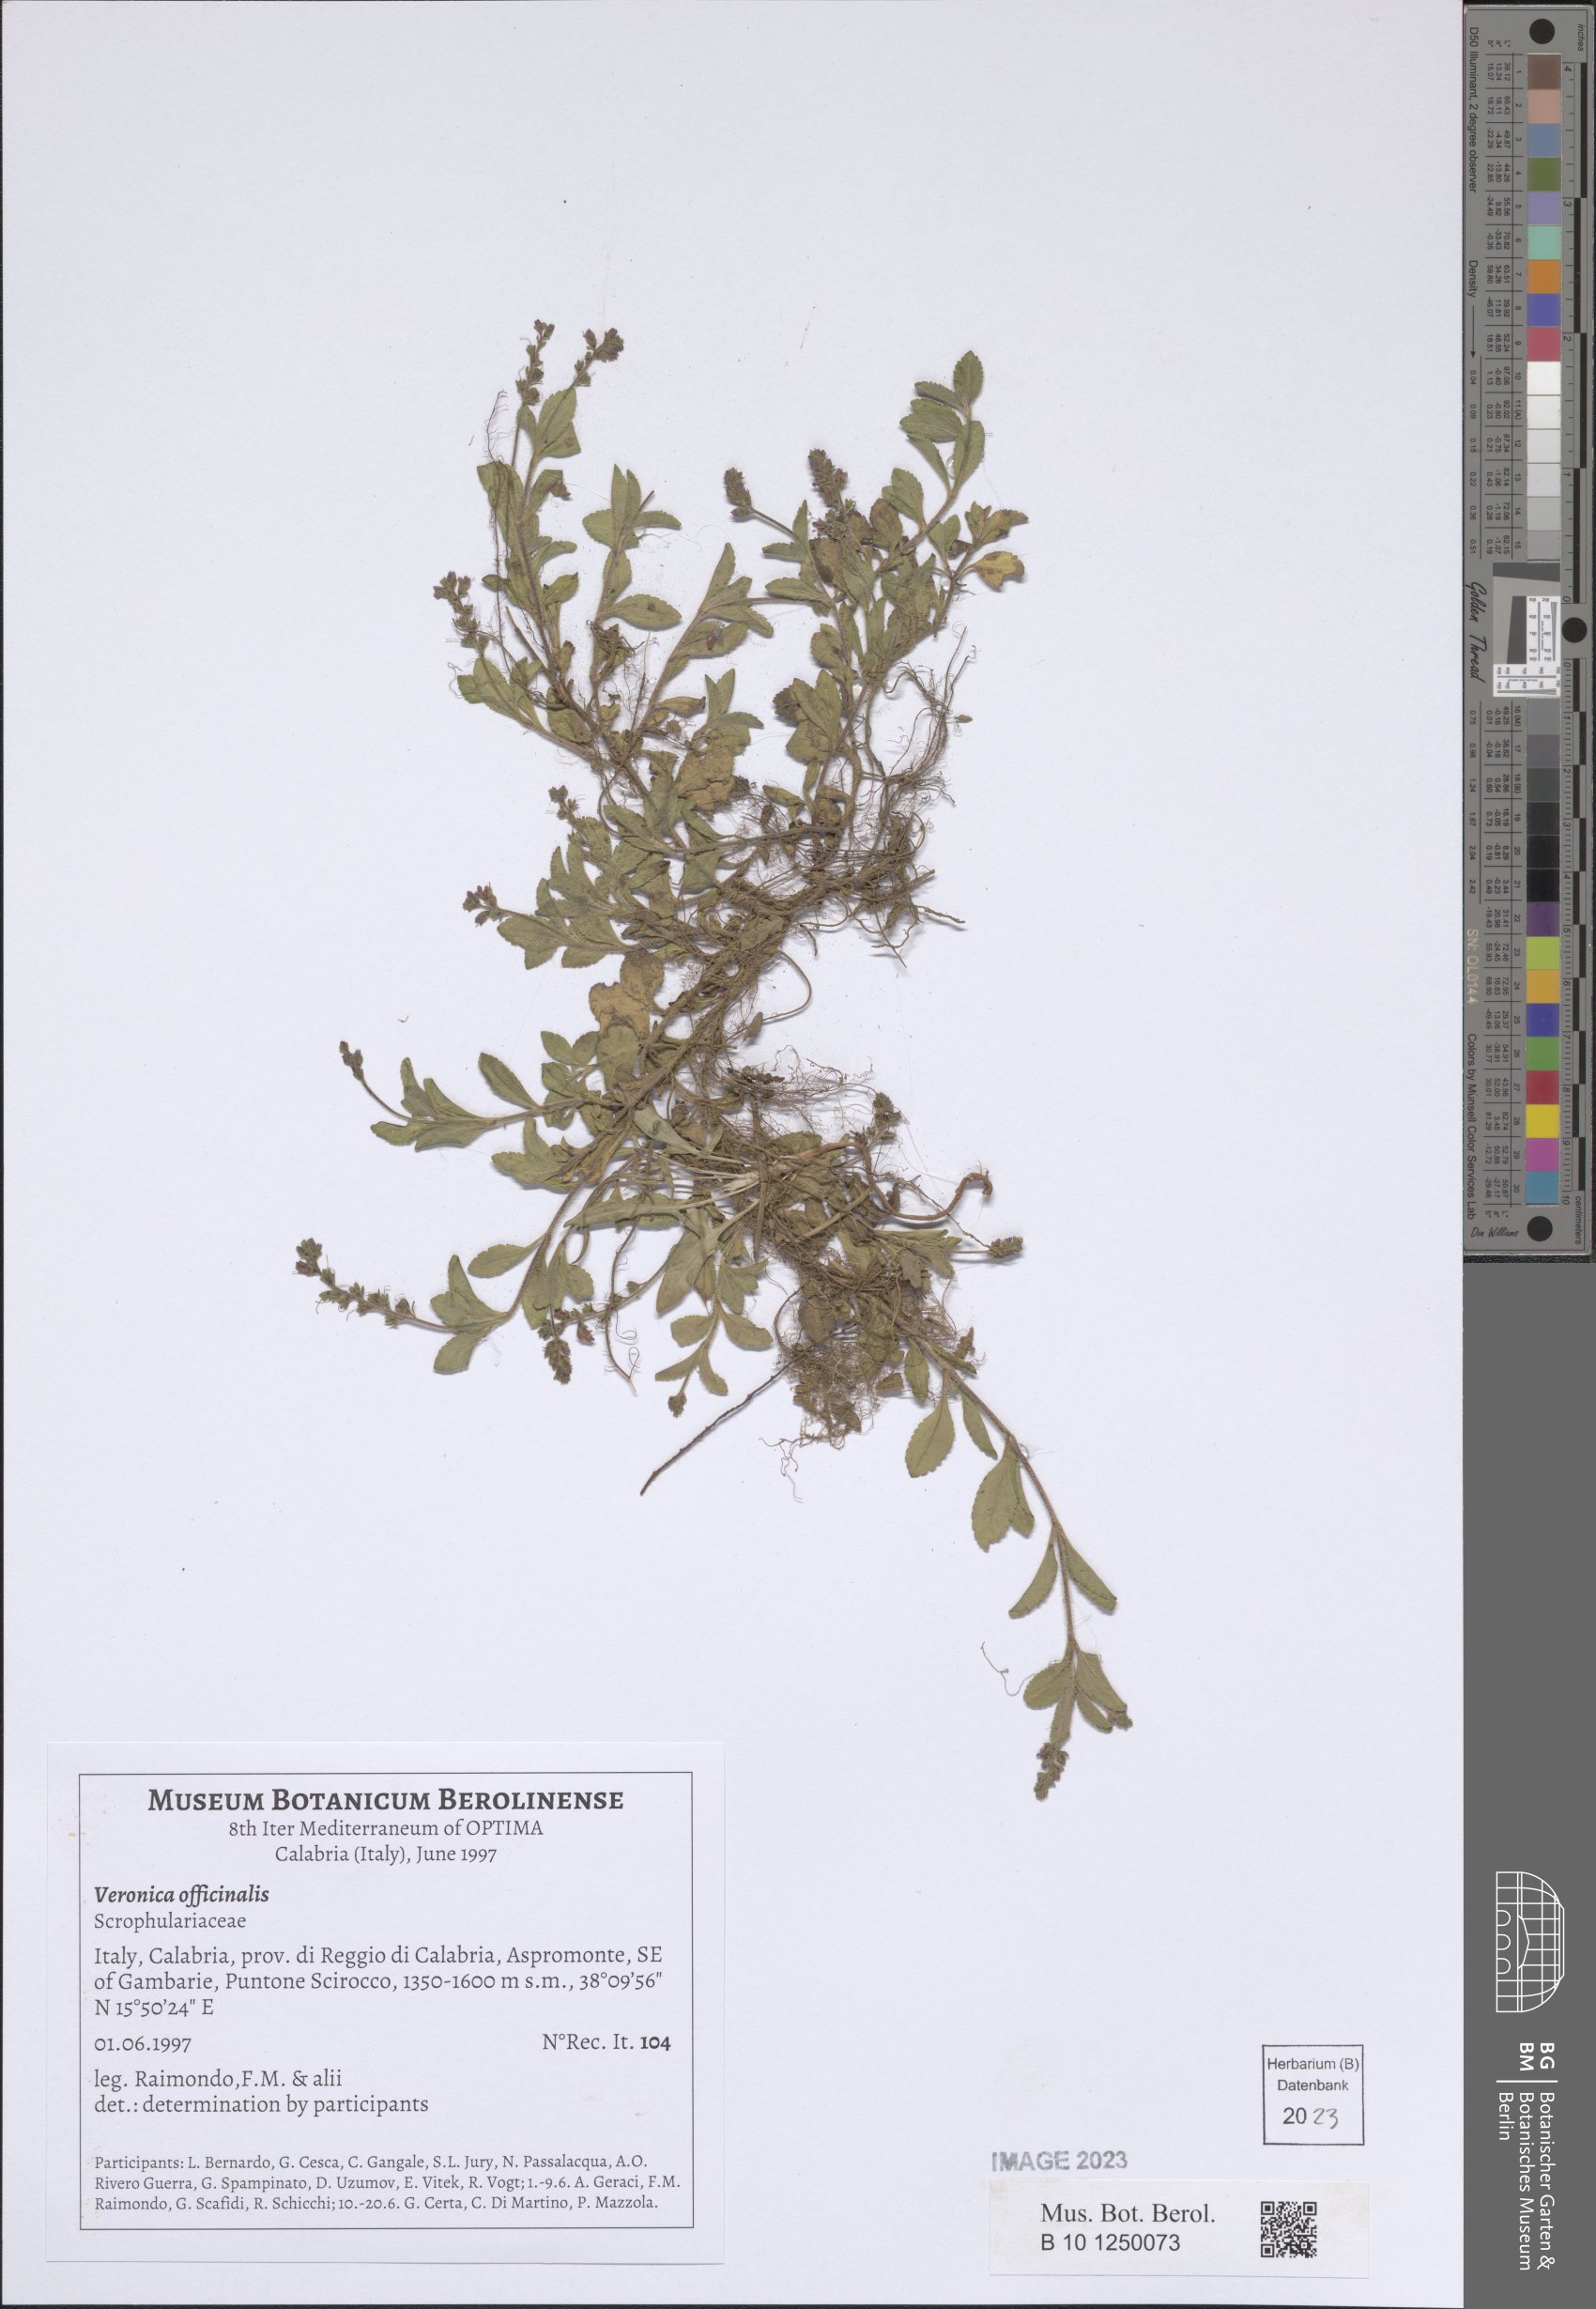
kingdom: Plantae
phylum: Tracheophyta
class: Magnoliopsida
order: Lamiales
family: Plantaginaceae
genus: Veronica
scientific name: Veronica officinalis
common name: Common speedwell
